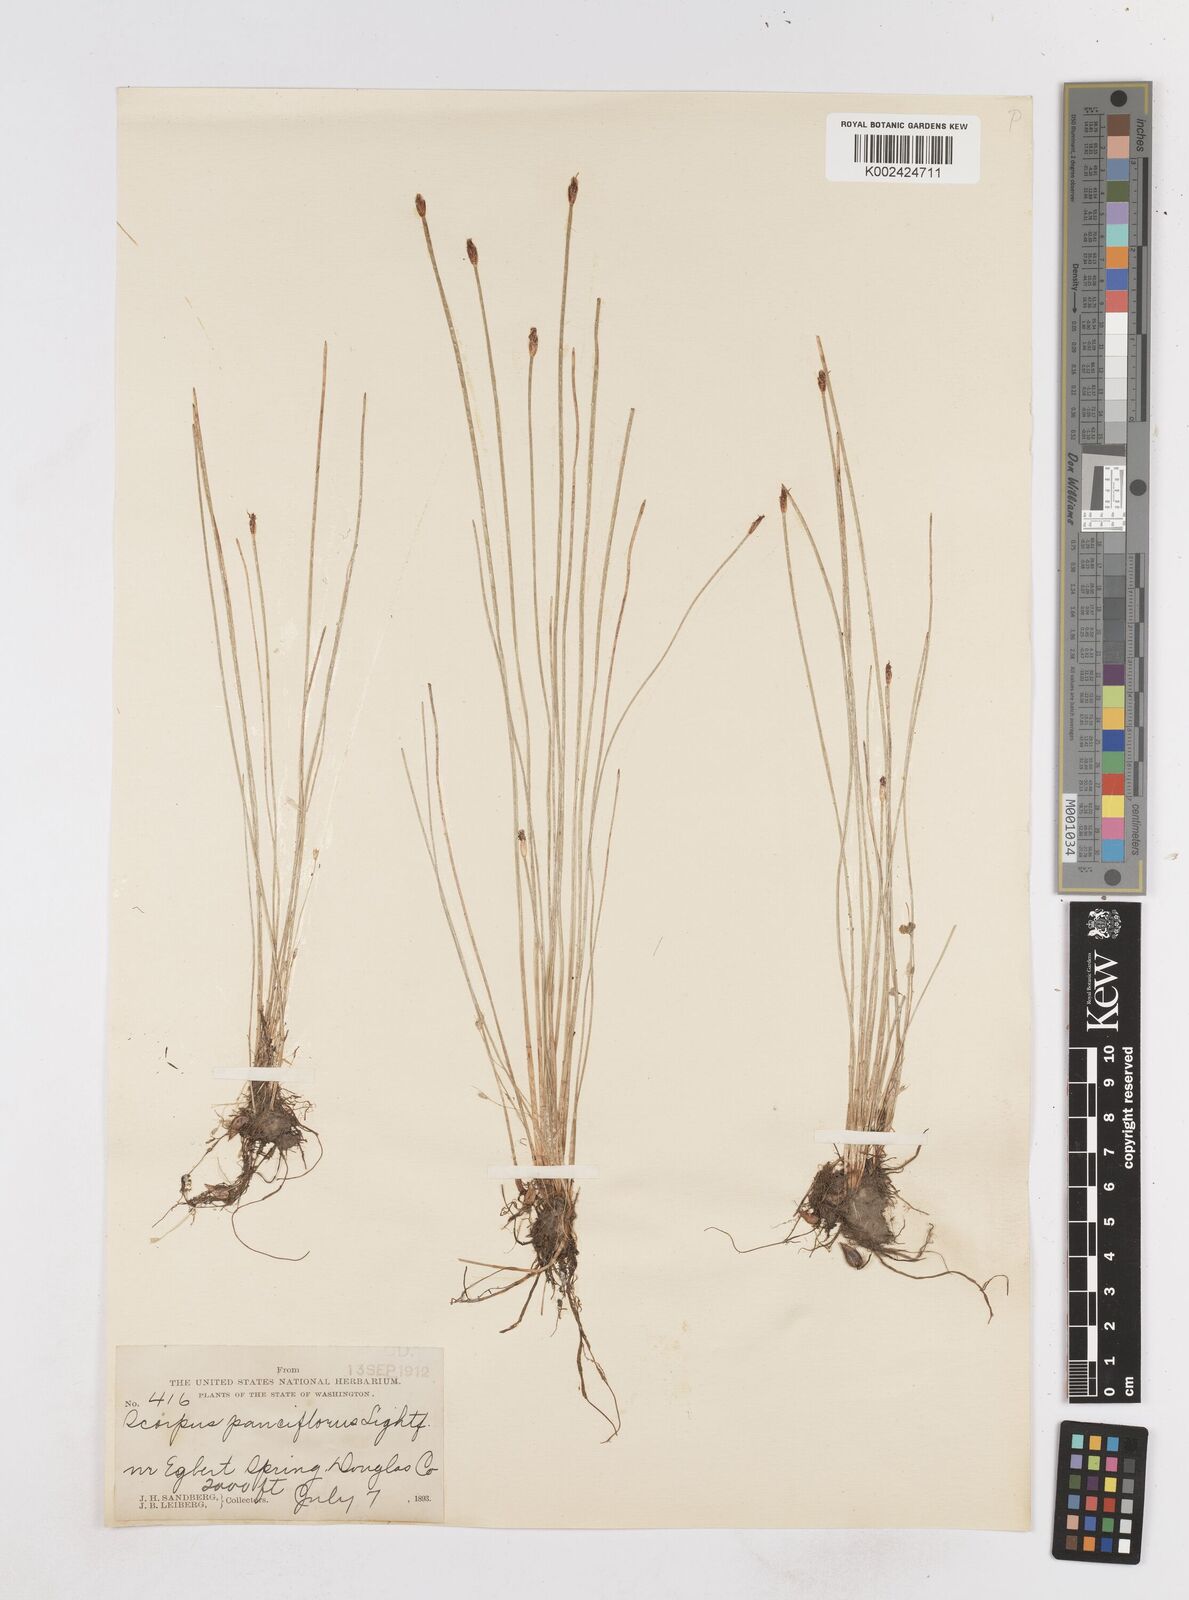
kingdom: Plantae
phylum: Tracheophyta
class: Liliopsida
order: Poales
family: Cyperaceae
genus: Eleocharis
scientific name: Eleocharis quinqueflora
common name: Few-flowered spike-rush
